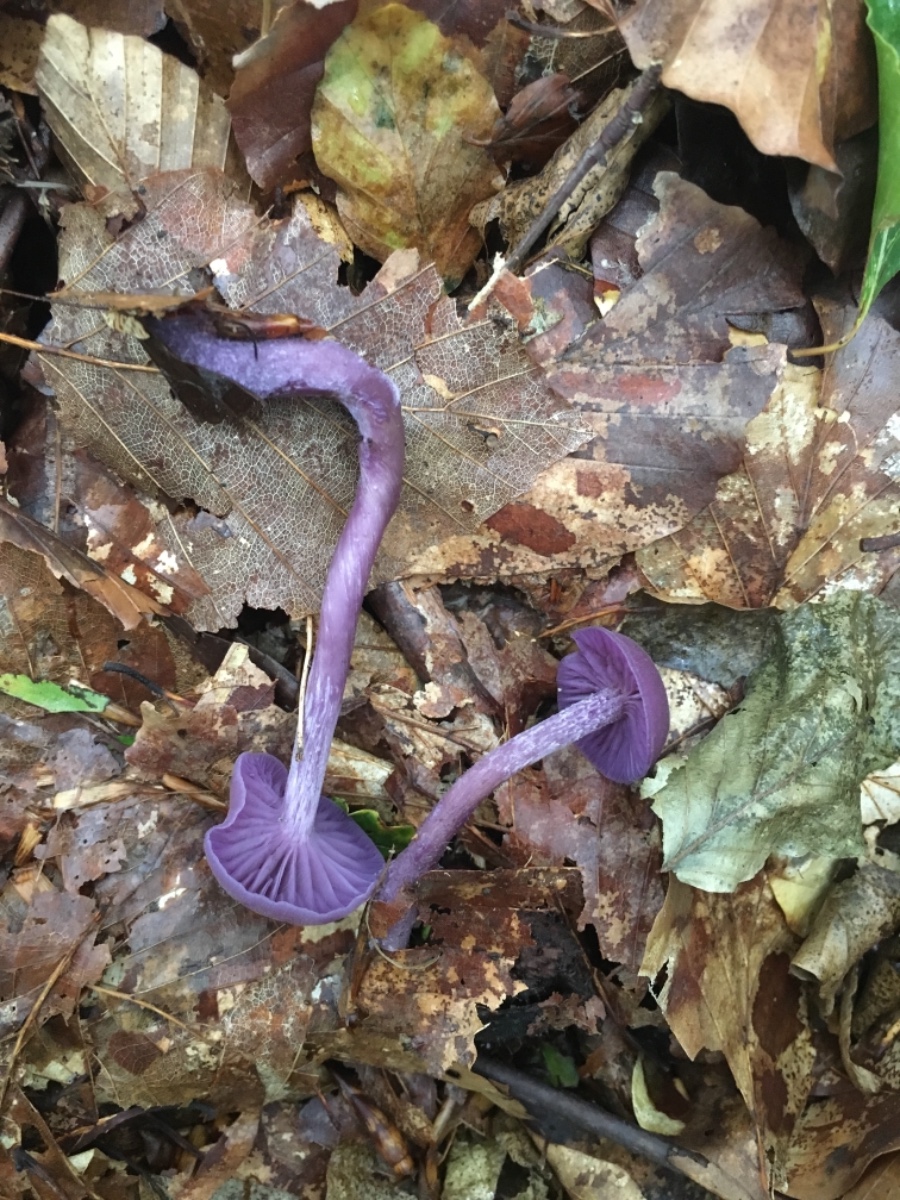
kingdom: Fungi
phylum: Basidiomycota
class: Agaricomycetes
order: Agaricales
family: Hydnangiaceae
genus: Laccaria
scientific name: Laccaria amethystina
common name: violet ametysthat
